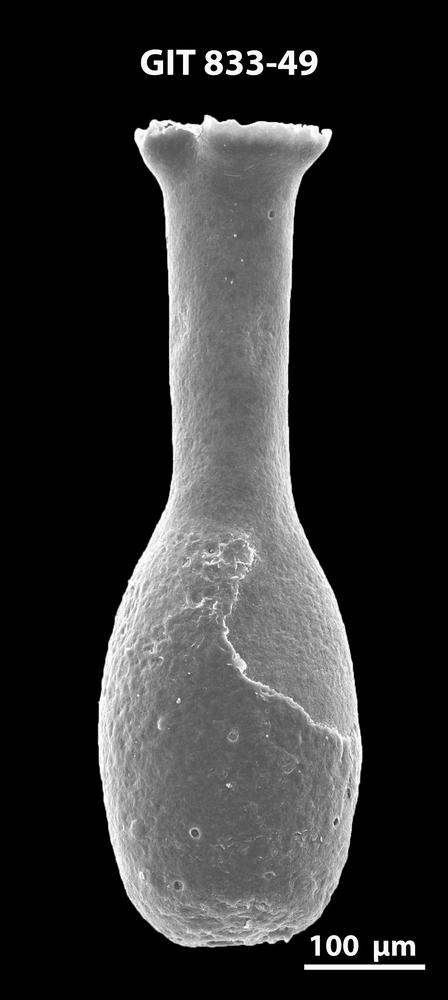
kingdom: Animalia
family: Lagenochitinidae
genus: Lagenochitina
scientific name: Lagenochitina megaesthonica
